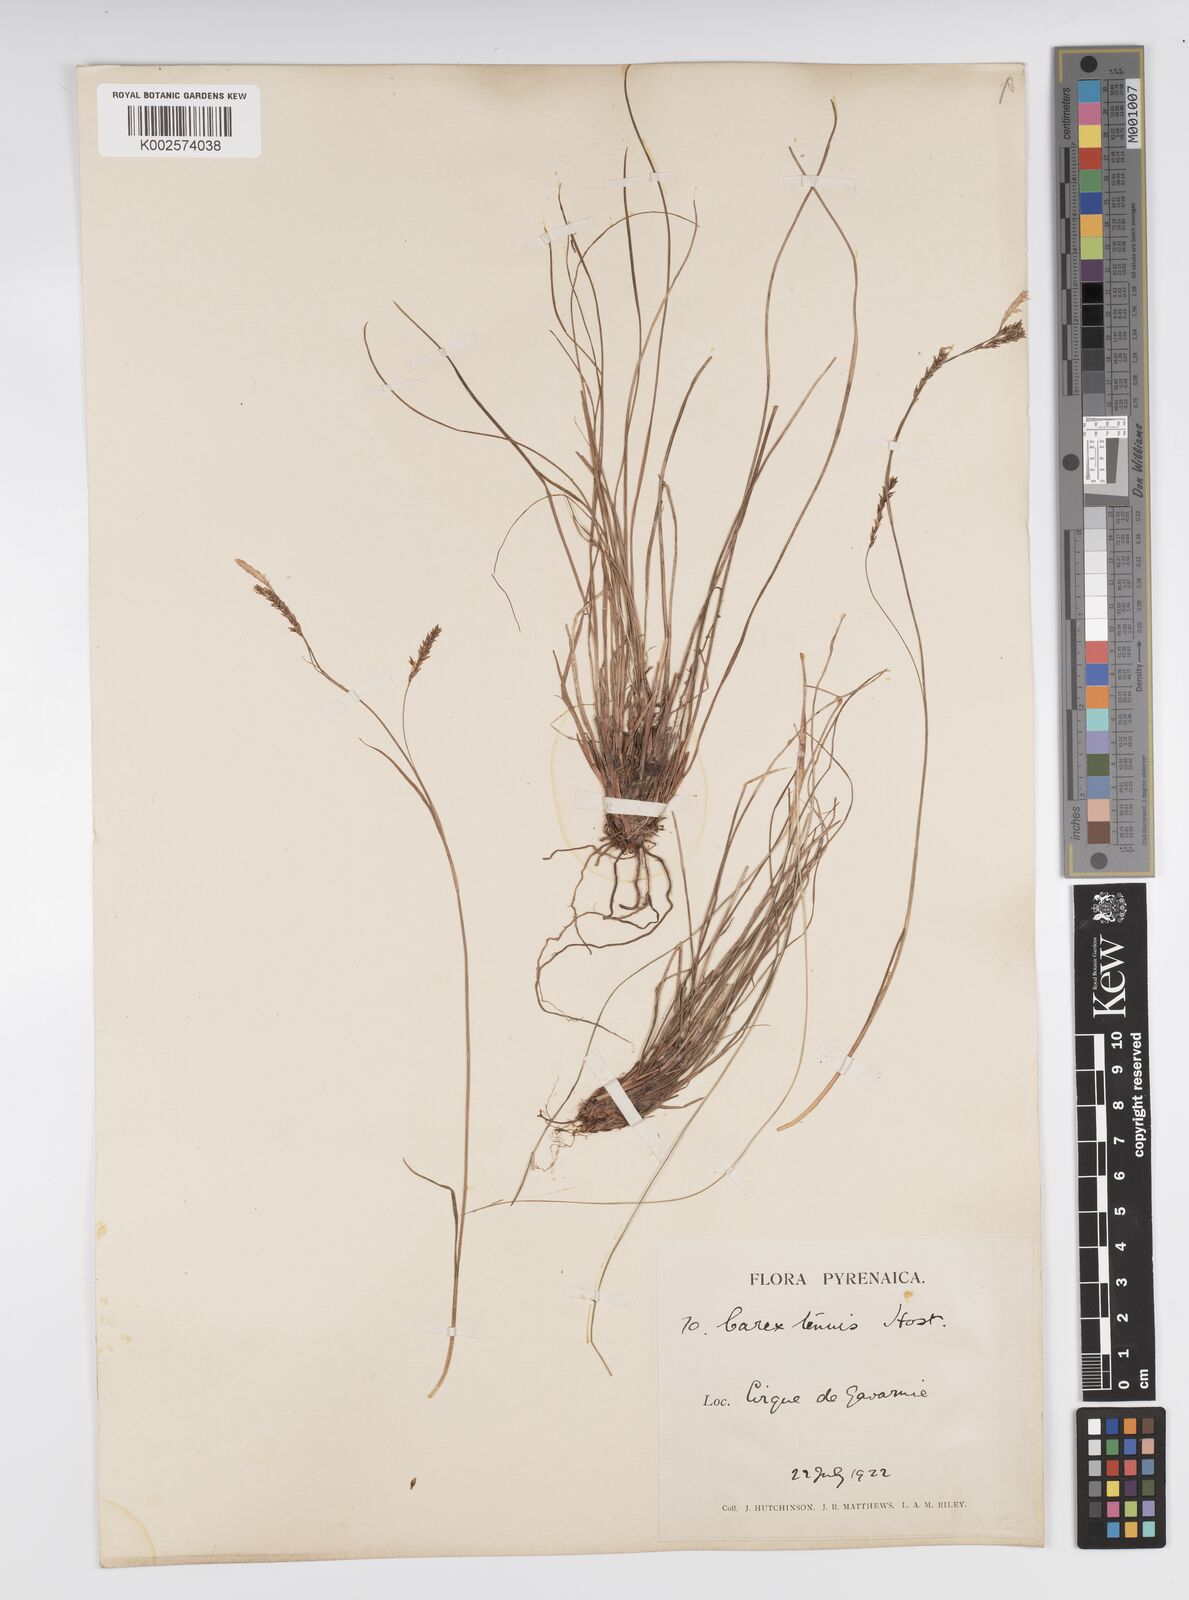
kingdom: Plantae
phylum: Tracheophyta
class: Liliopsida
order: Poales
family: Cyperaceae
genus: Carex
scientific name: Carex brachystachys
